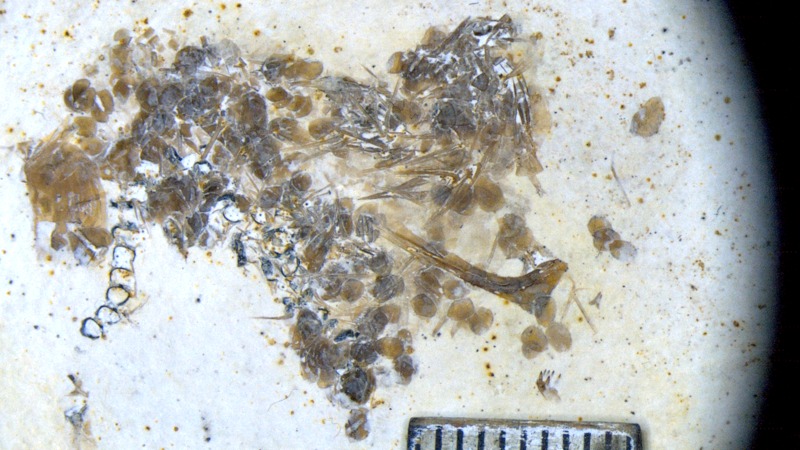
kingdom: Animalia
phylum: Chordata
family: Macrosemiidae
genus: Notagogus
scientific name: Notagogus denticulatus
